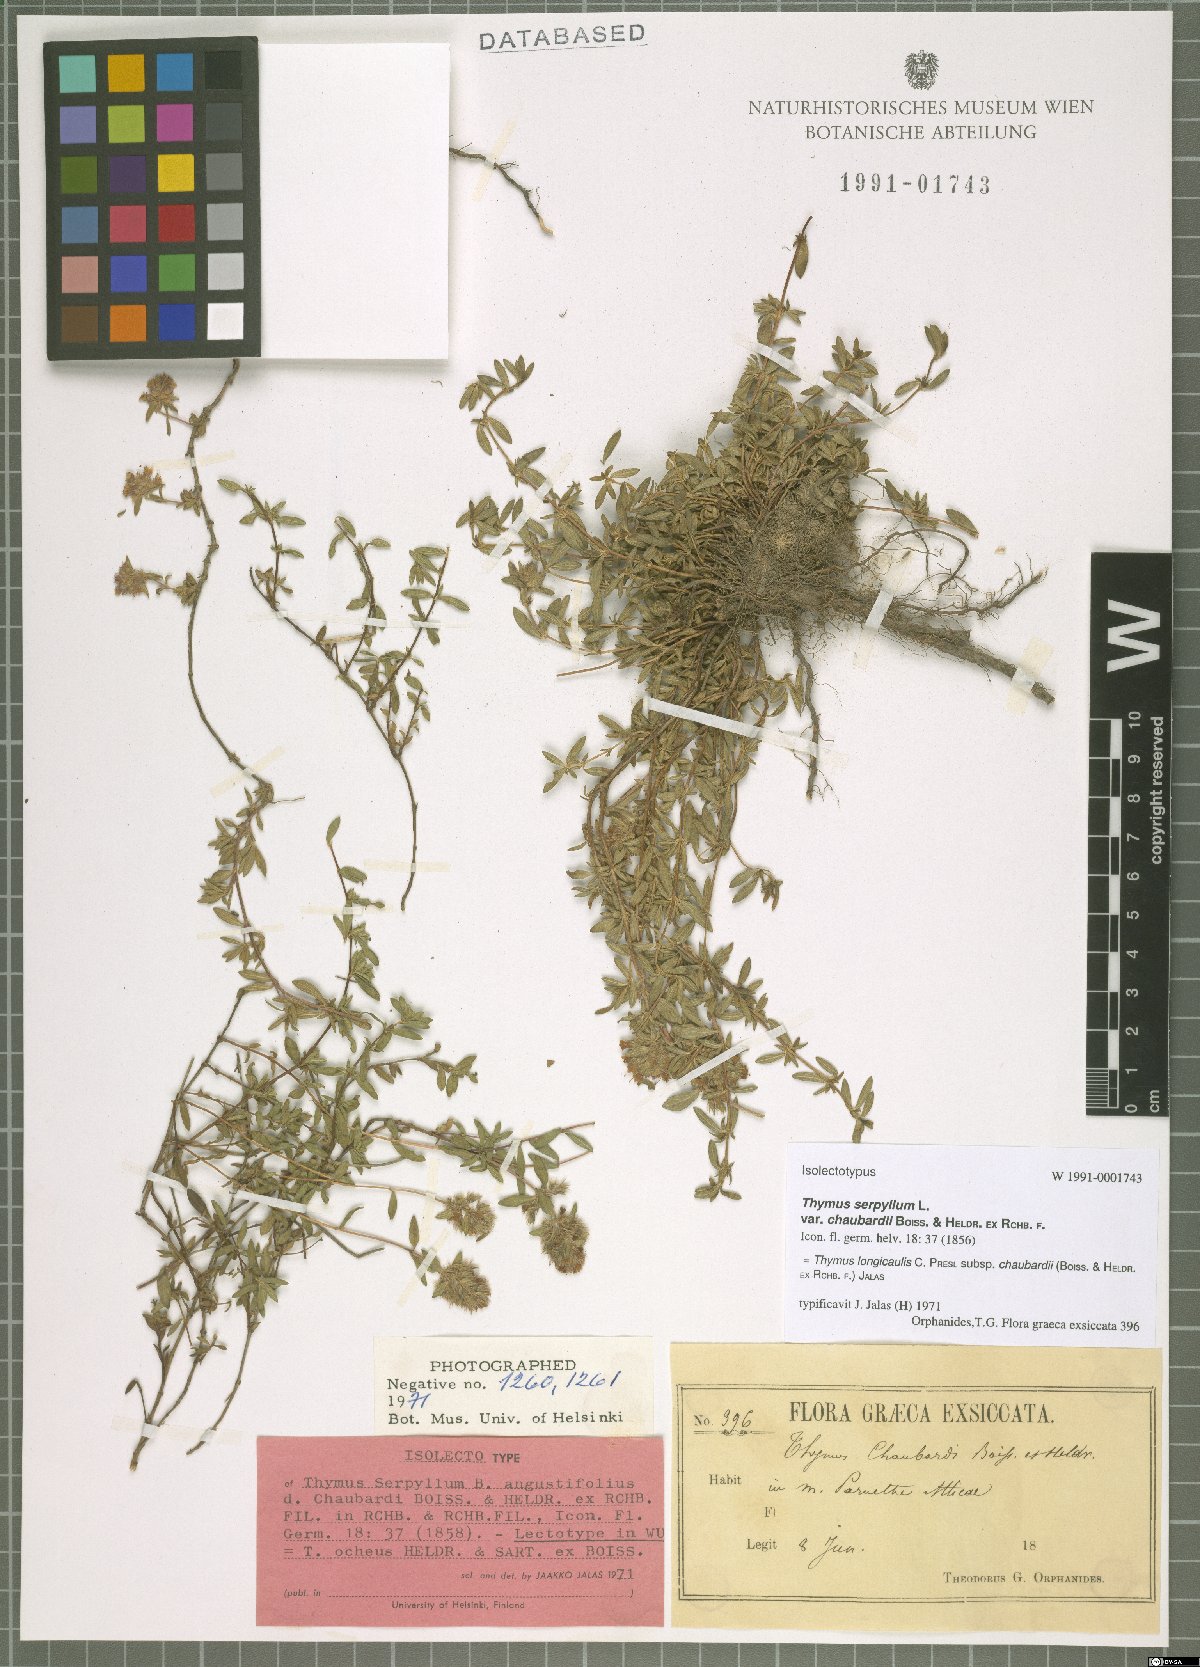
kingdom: Plantae
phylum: Tracheophyta
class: Magnoliopsida
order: Lamiales
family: Lamiaceae
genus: Thymus
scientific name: Thymus longicaulis
